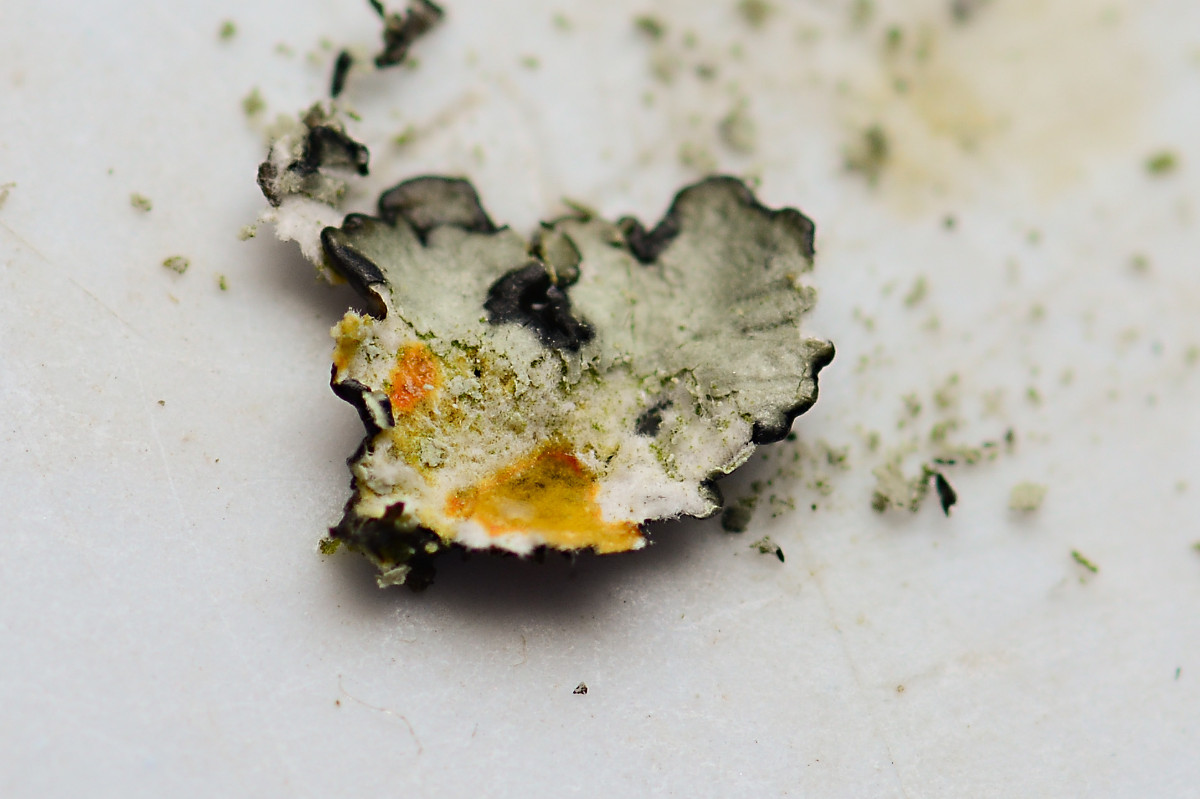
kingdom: Fungi
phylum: Ascomycota
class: Lecanoromycetes
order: Lecanorales
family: Parmeliaceae
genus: Xanthoparmelia
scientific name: Xanthoparmelia stenophylla
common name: Shingled rock shield
